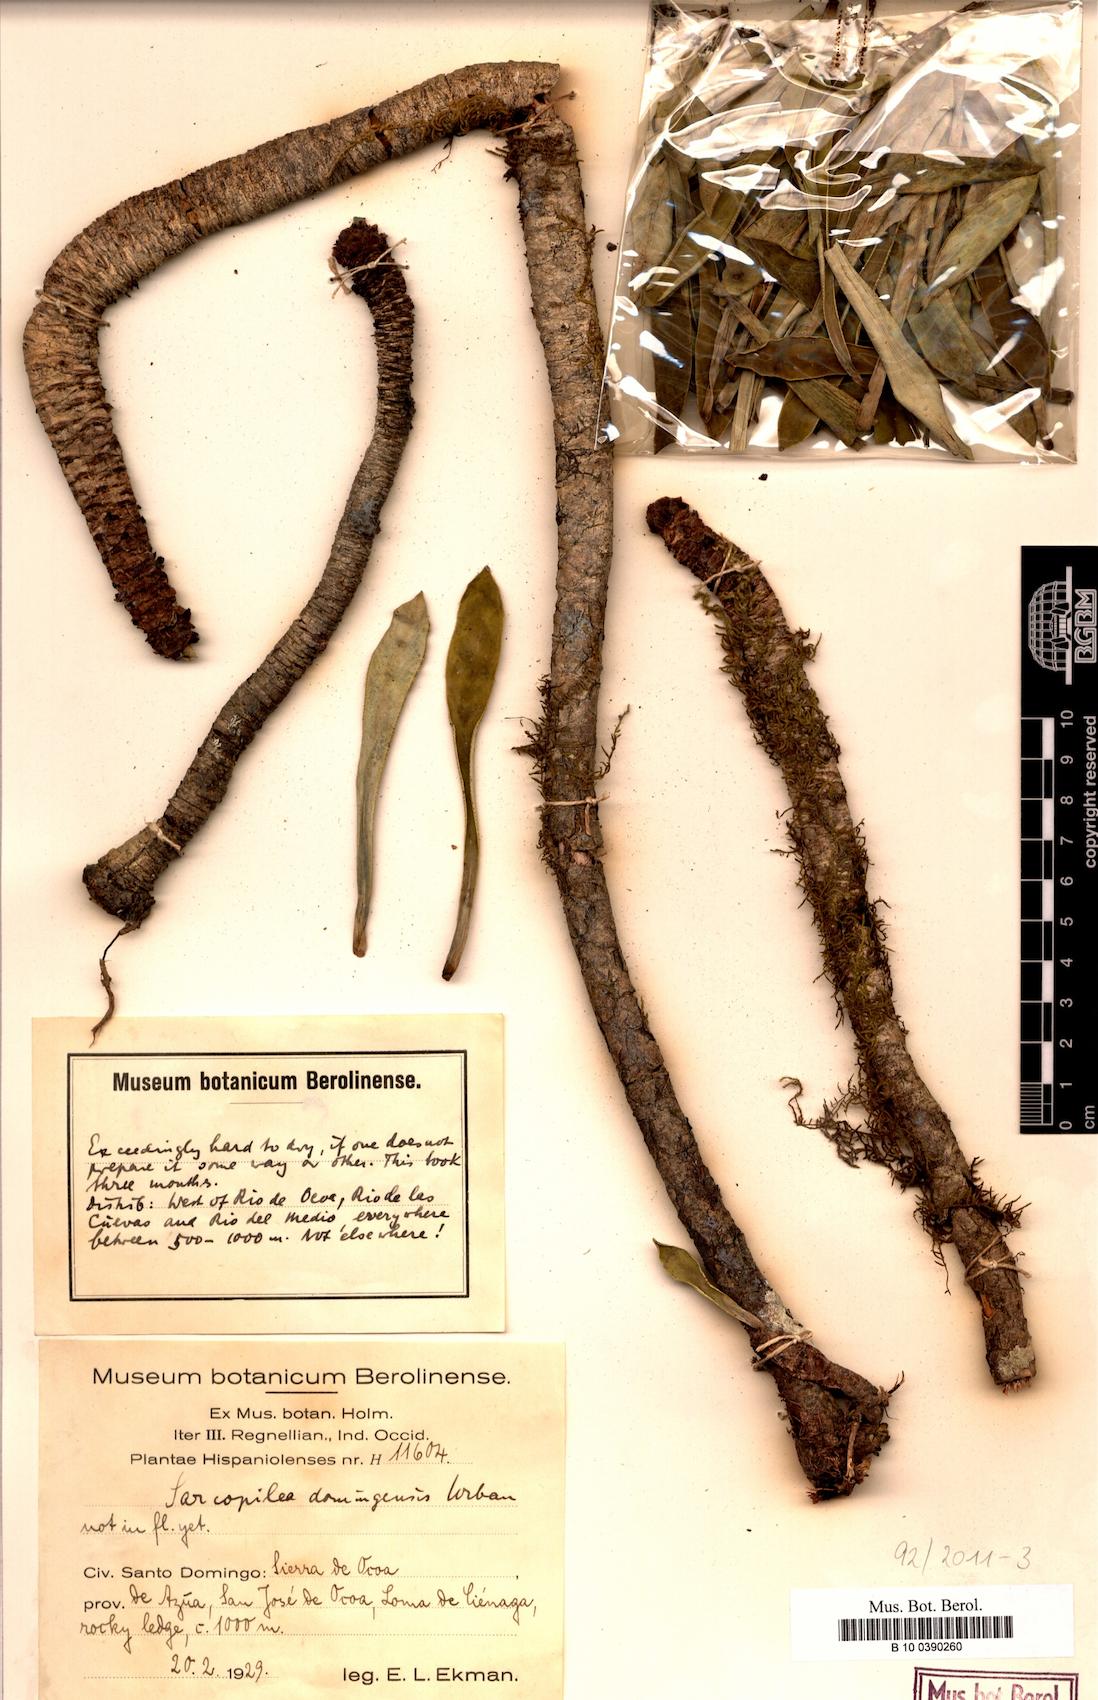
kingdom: Plantae
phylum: Tracheophyta
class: Magnoliopsida
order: Rosales
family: Urticaceae
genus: Pilea
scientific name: Pilea fairchildiana
